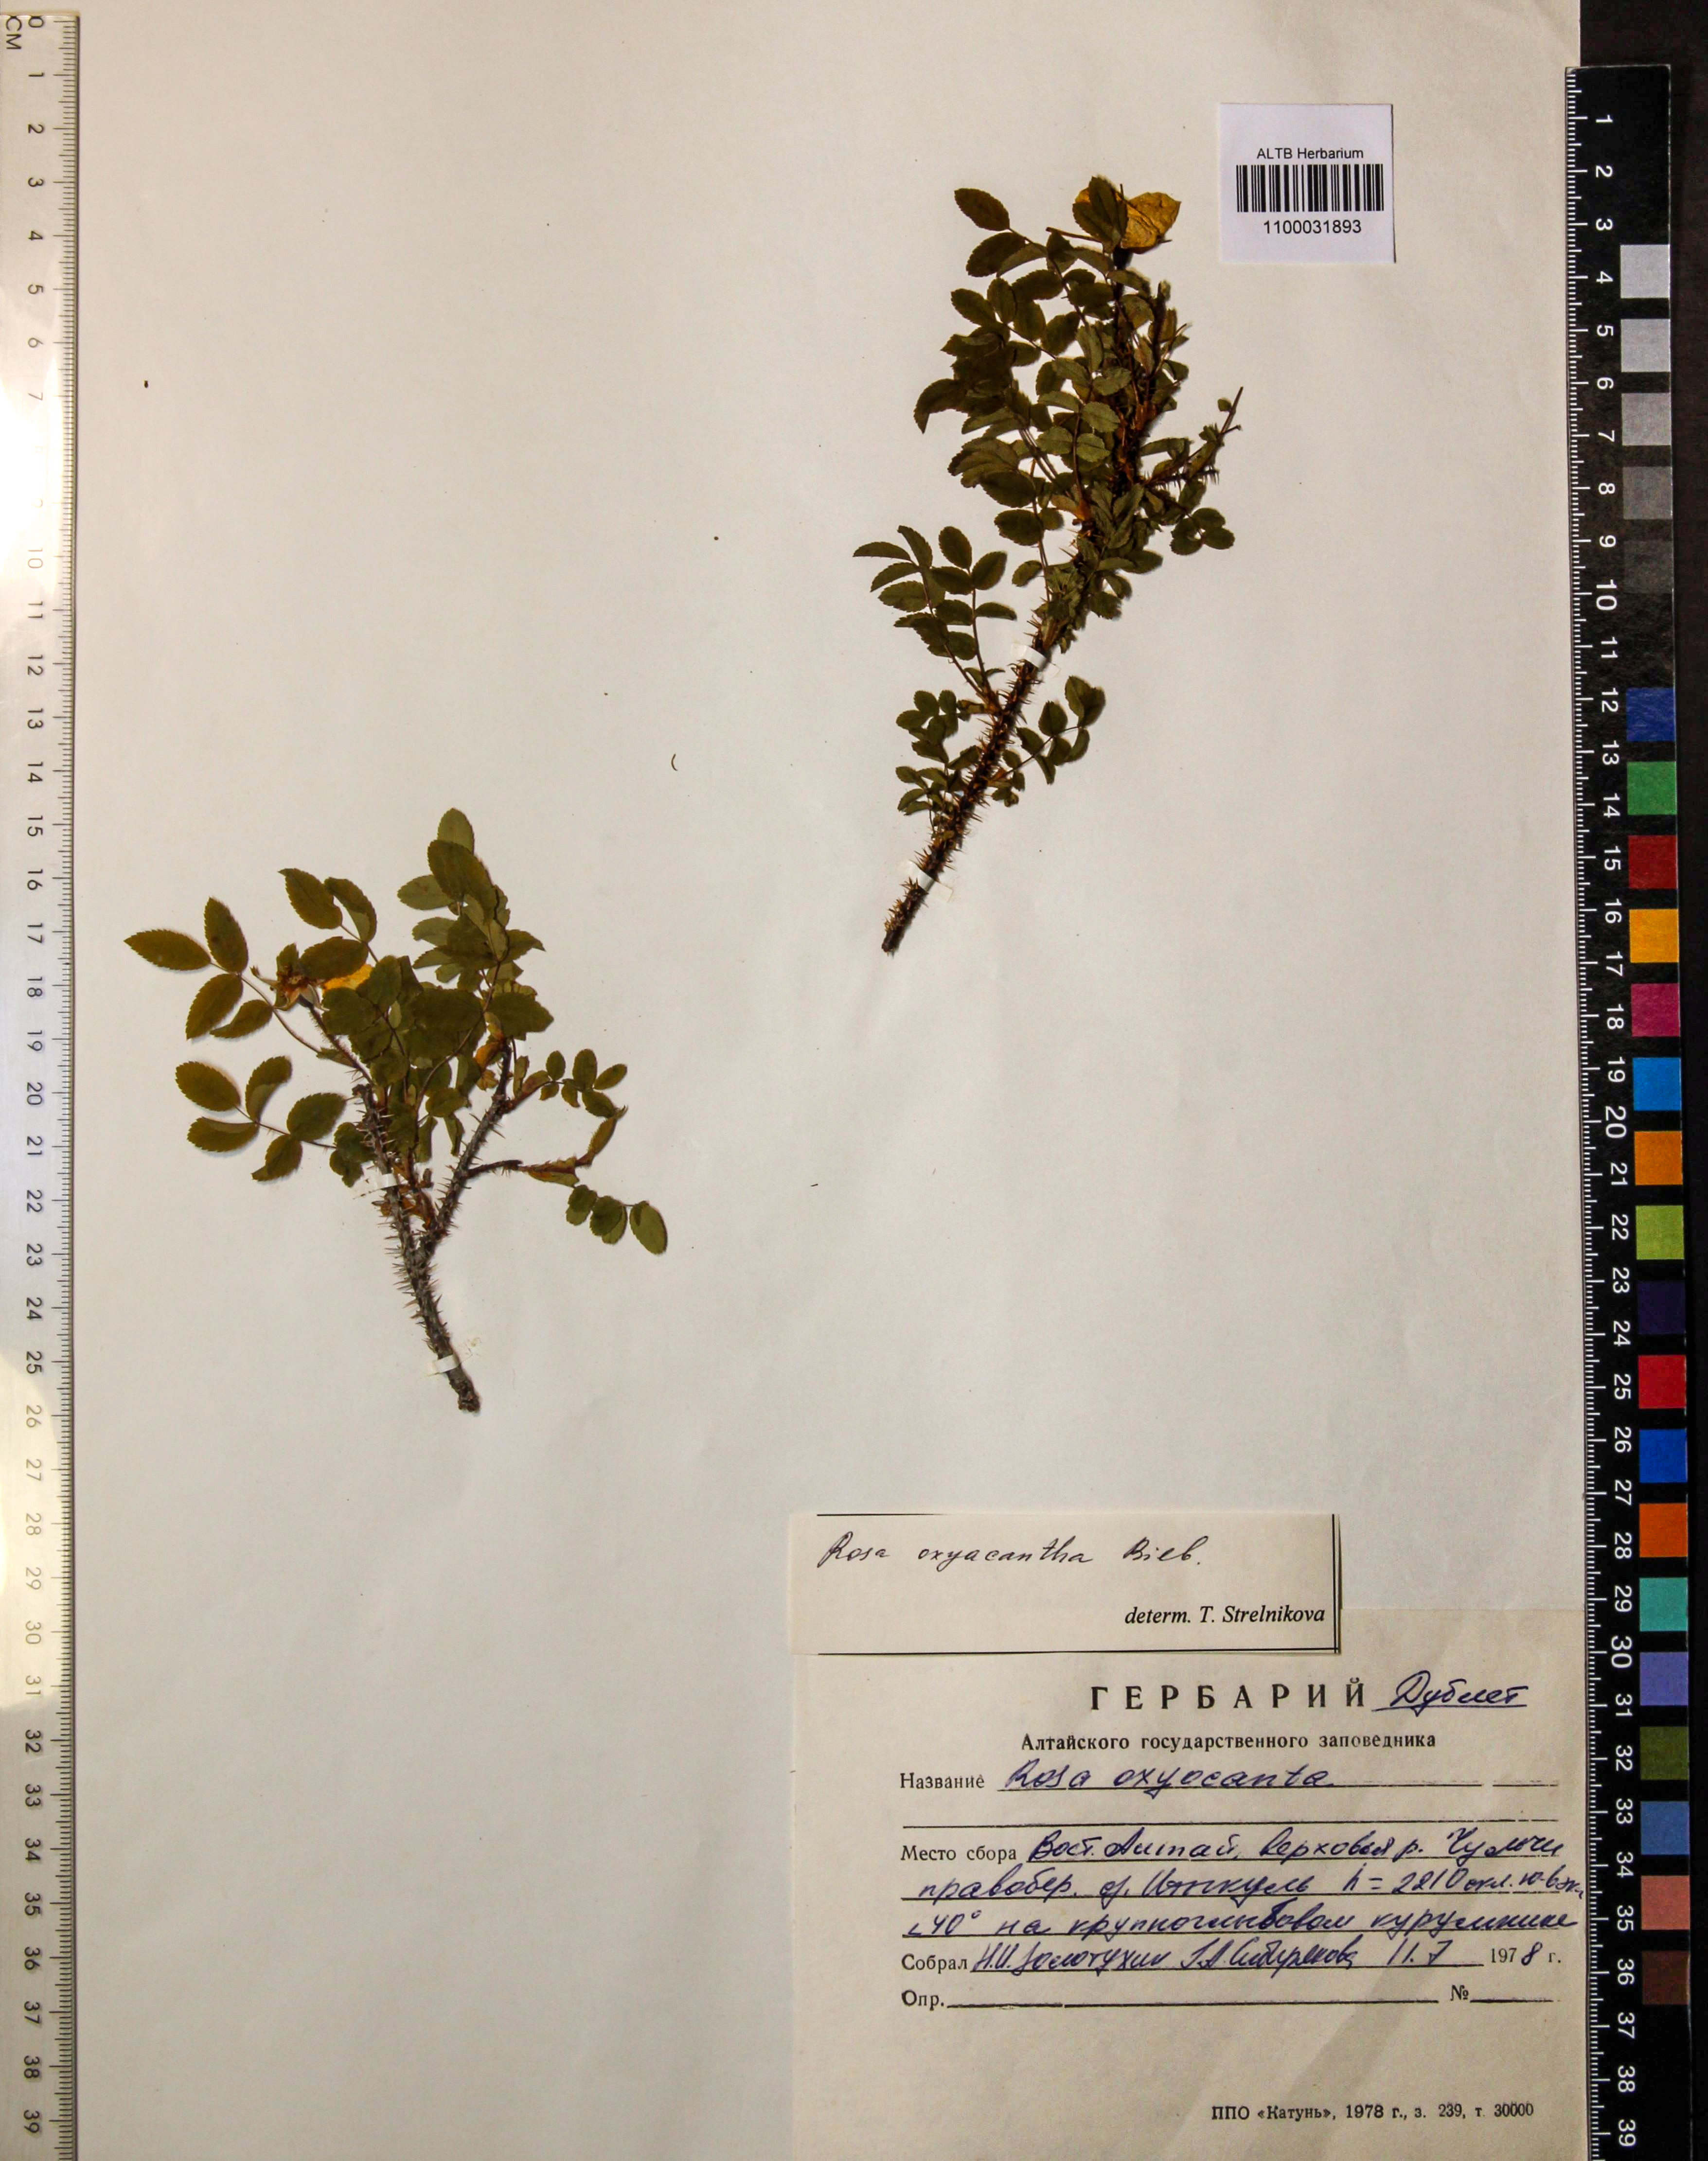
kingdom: Plantae
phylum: Tracheophyta
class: Magnoliopsida
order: Rosales
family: Rosaceae
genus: Rosa
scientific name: Rosa oxyacantha
